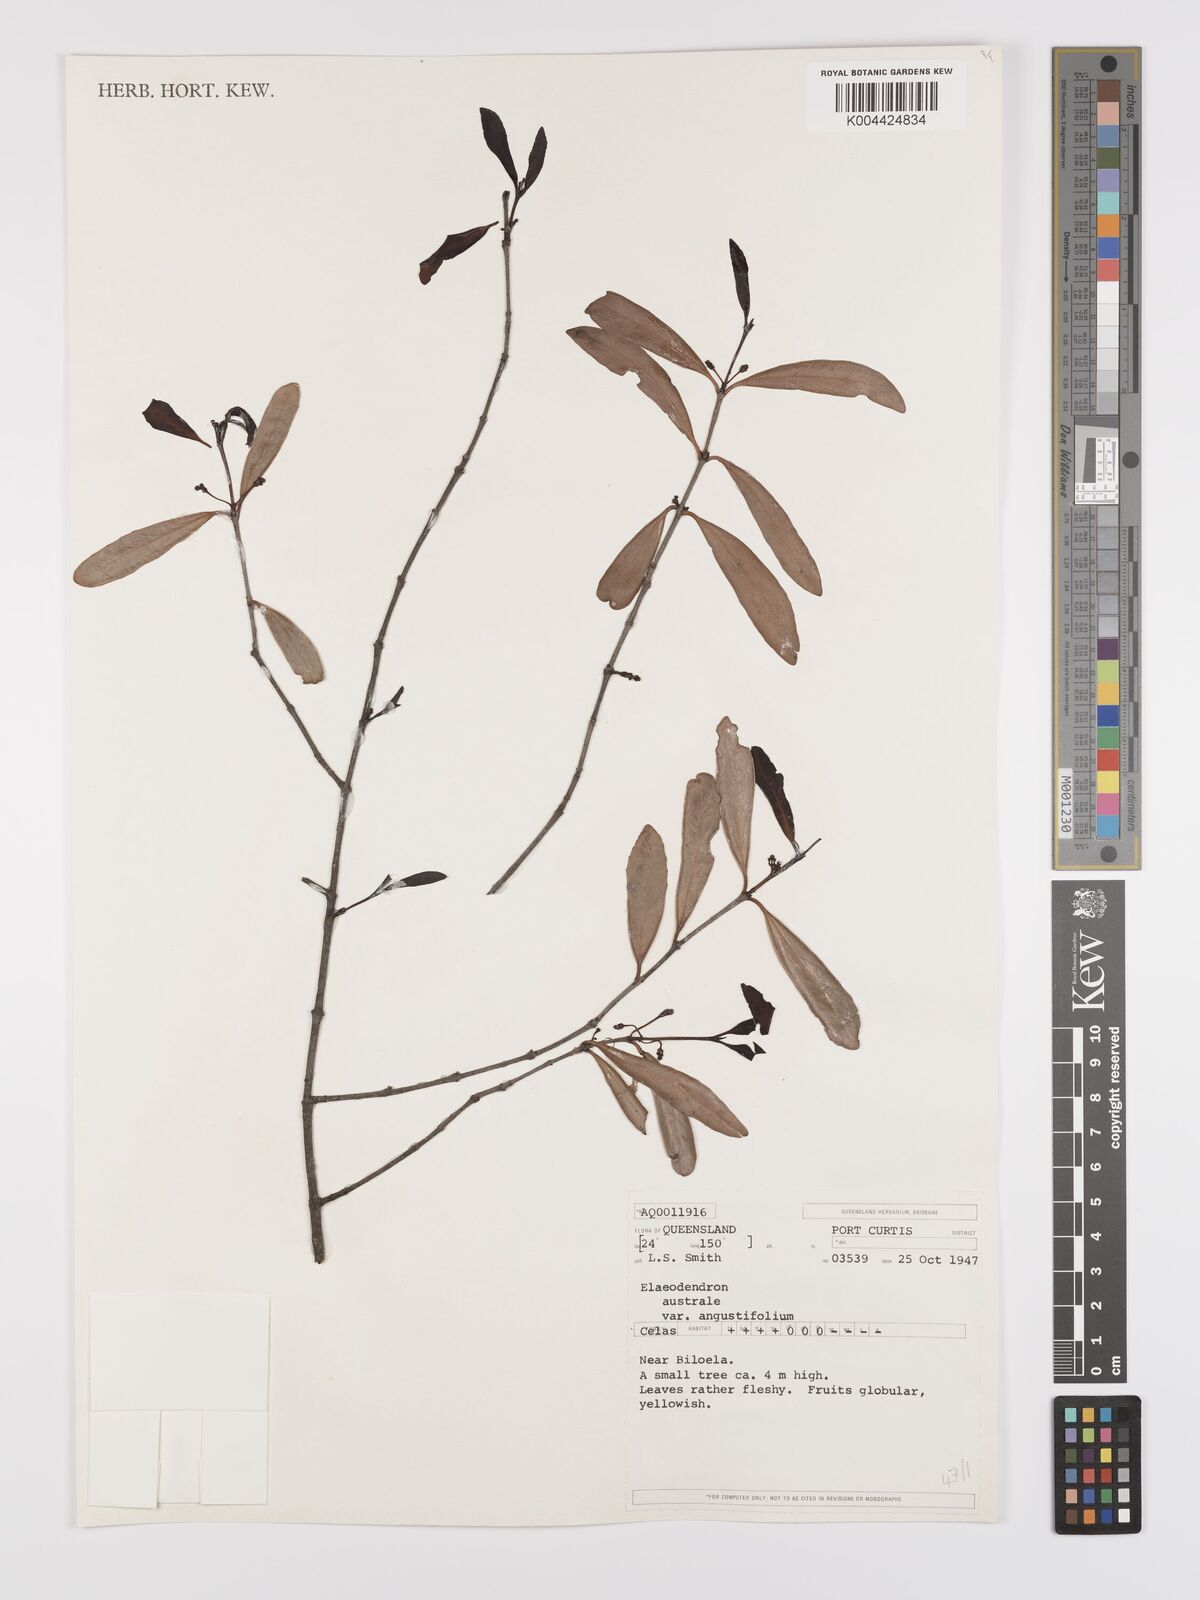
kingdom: Plantae
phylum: Tracheophyta
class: Magnoliopsida
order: Celastrales
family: Celastraceae
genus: Elaeodendron
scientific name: Elaeodendron australe
